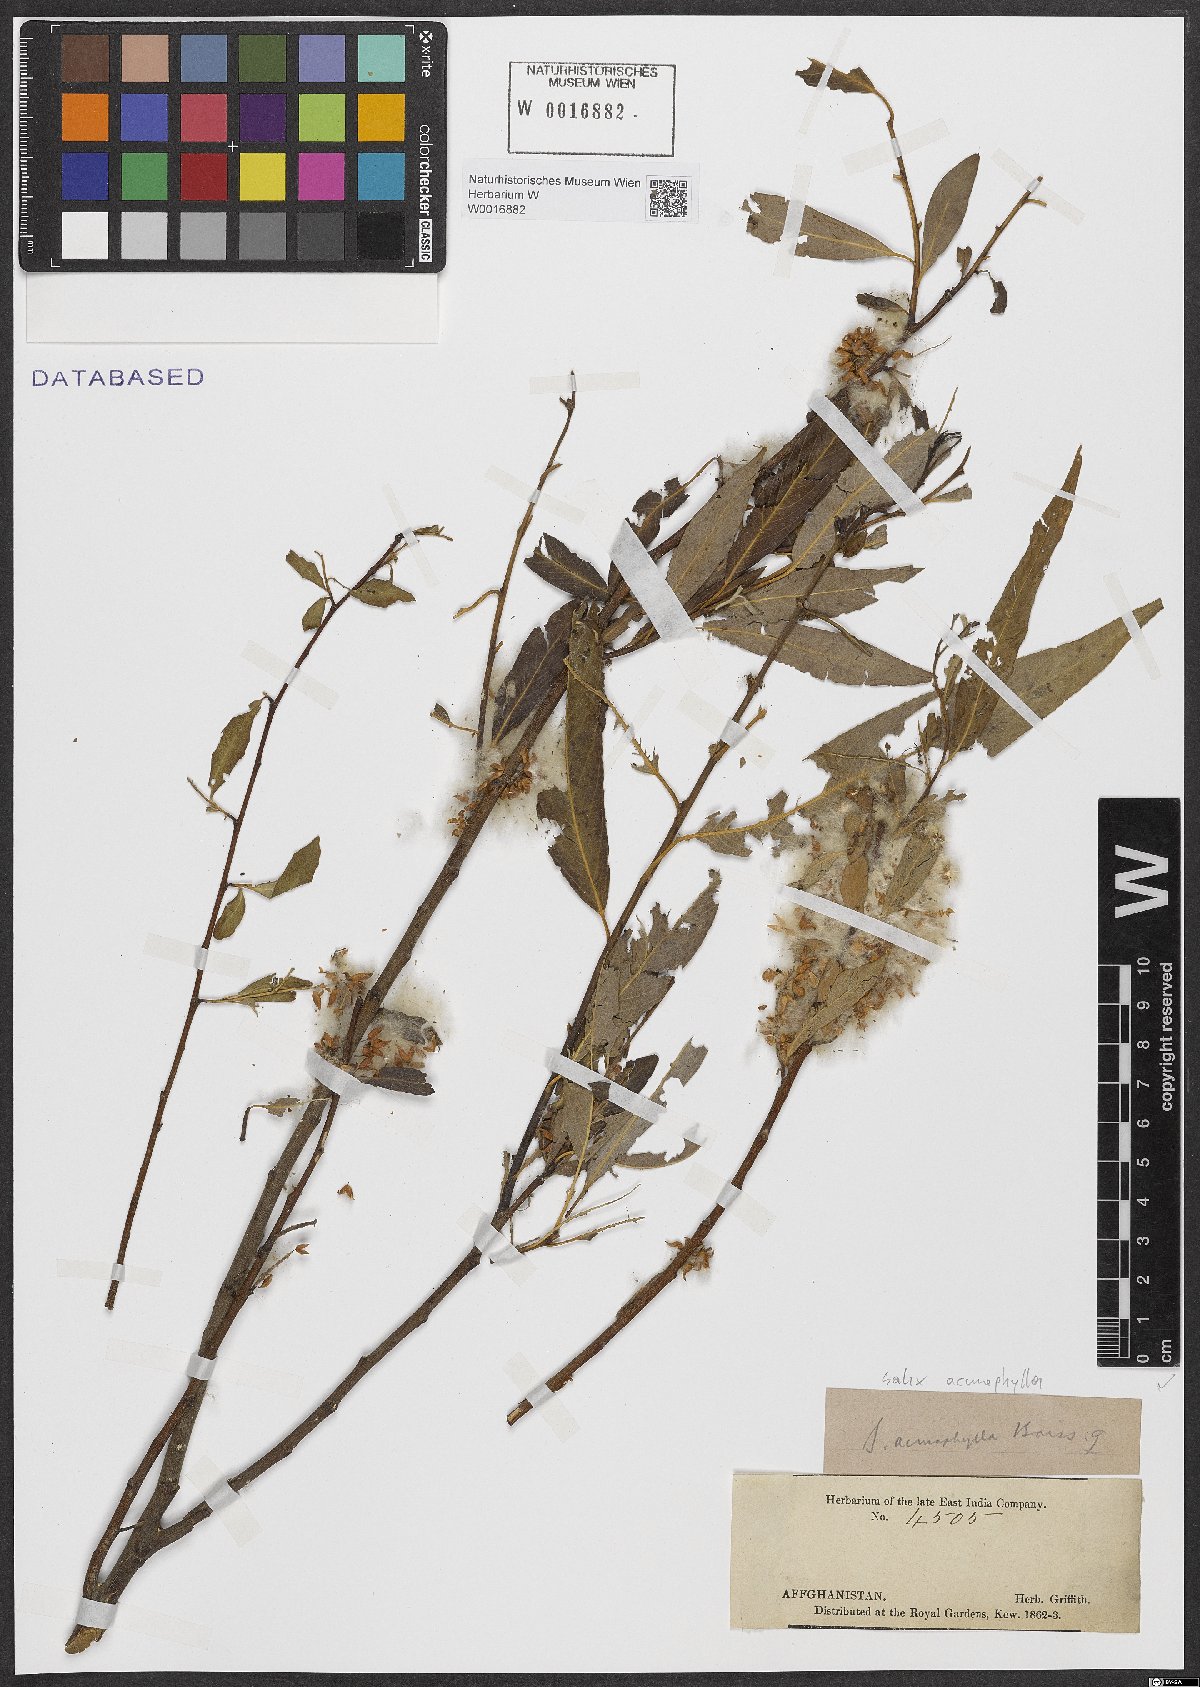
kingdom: Plantae
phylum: Tracheophyta
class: Magnoliopsida
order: Malpighiales
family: Salicaceae
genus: Salix
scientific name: Salix acmophylla
